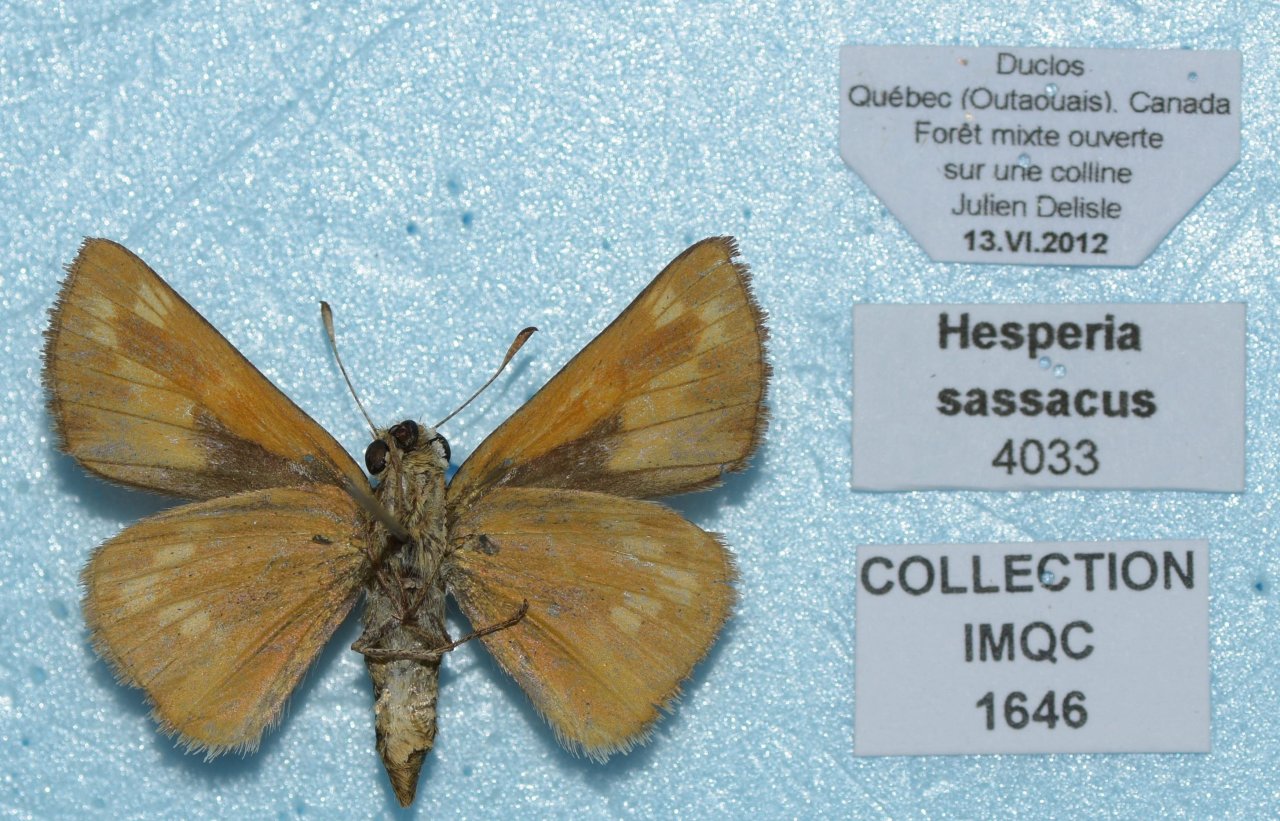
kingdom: Animalia
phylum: Arthropoda
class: Insecta
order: Lepidoptera
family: Hesperiidae
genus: Hesperia
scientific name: Hesperia sassacus
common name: Sassacus Skipper
